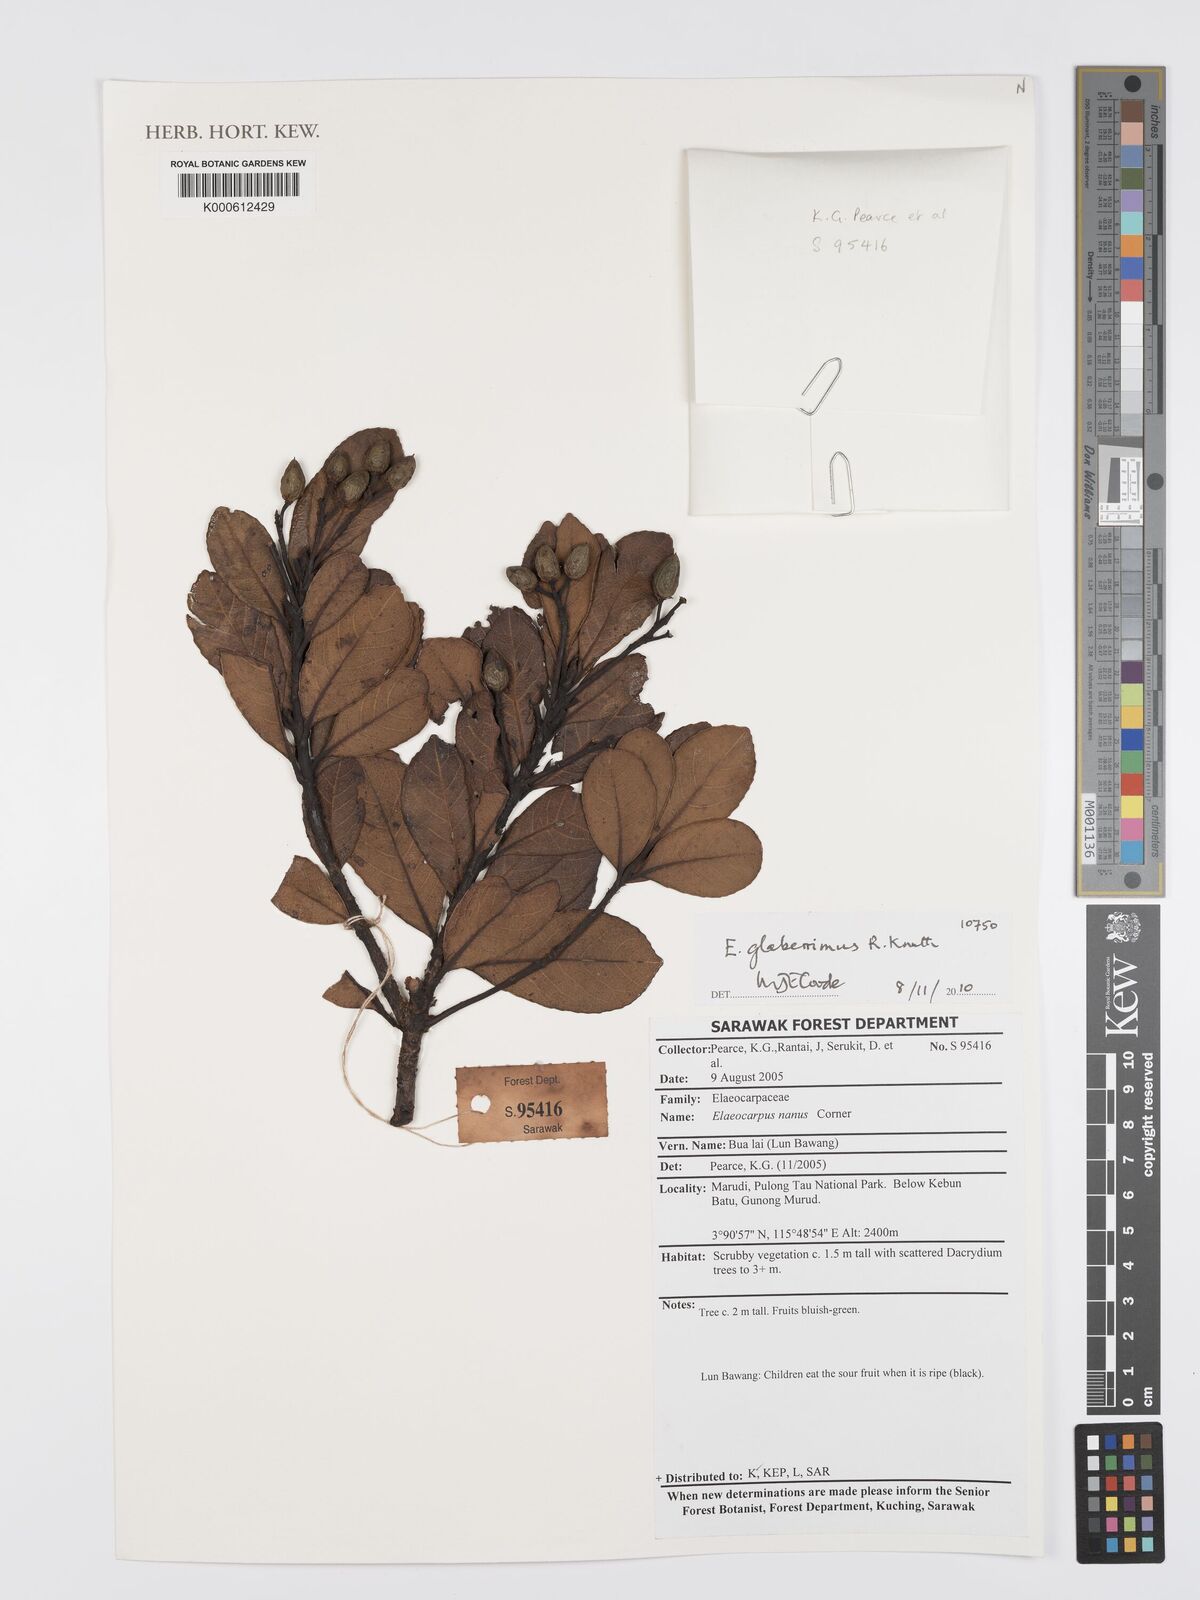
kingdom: Plantae
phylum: Tracheophyta
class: Magnoliopsida
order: Oxalidales
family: Elaeocarpaceae
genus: Elaeocarpus
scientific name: Elaeocarpus glaberrimus
